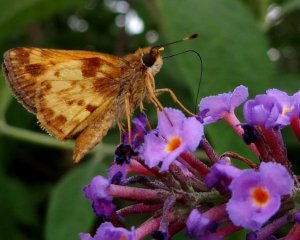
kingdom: Animalia
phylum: Arthropoda
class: Insecta
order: Lepidoptera
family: Hesperiidae
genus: Lon
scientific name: Lon zabulon
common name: Zabulon Skipper
